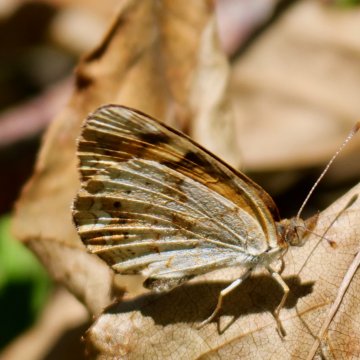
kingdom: Animalia
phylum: Arthropoda
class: Insecta
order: Lepidoptera
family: Nymphalidae
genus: Phyciodes
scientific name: Phyciodes tharos
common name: Northern Crescent
